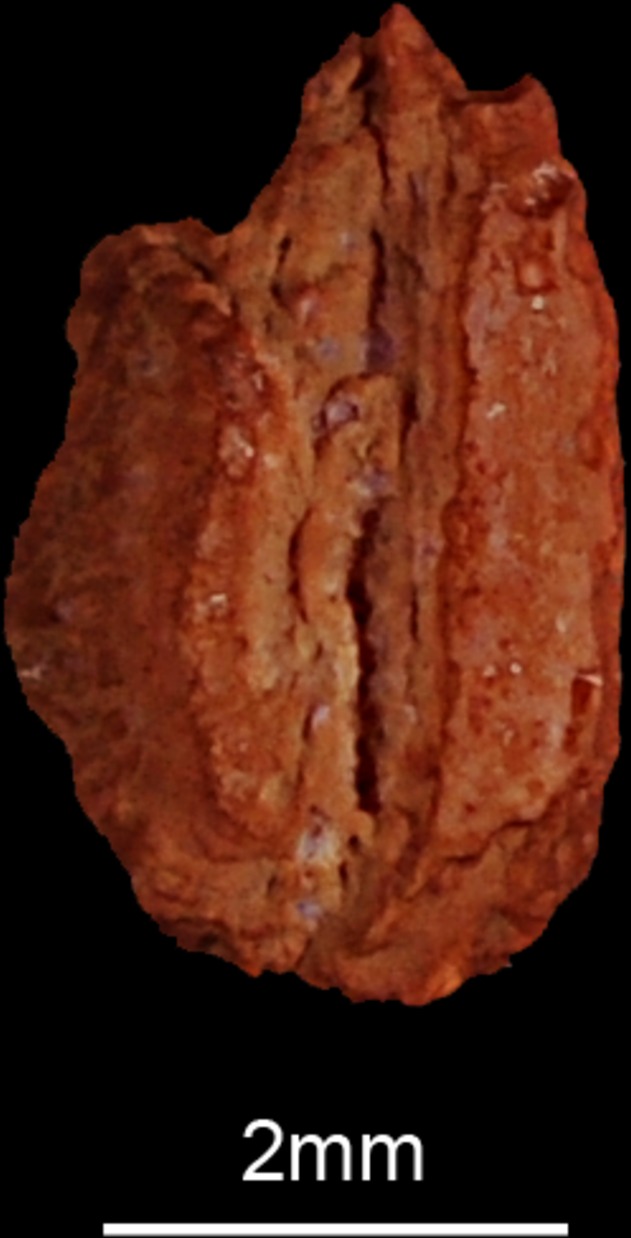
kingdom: Animalia
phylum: Chordata
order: Esociformes
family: Esocidae
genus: Esox
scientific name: Esox lucius
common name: Northern pike
